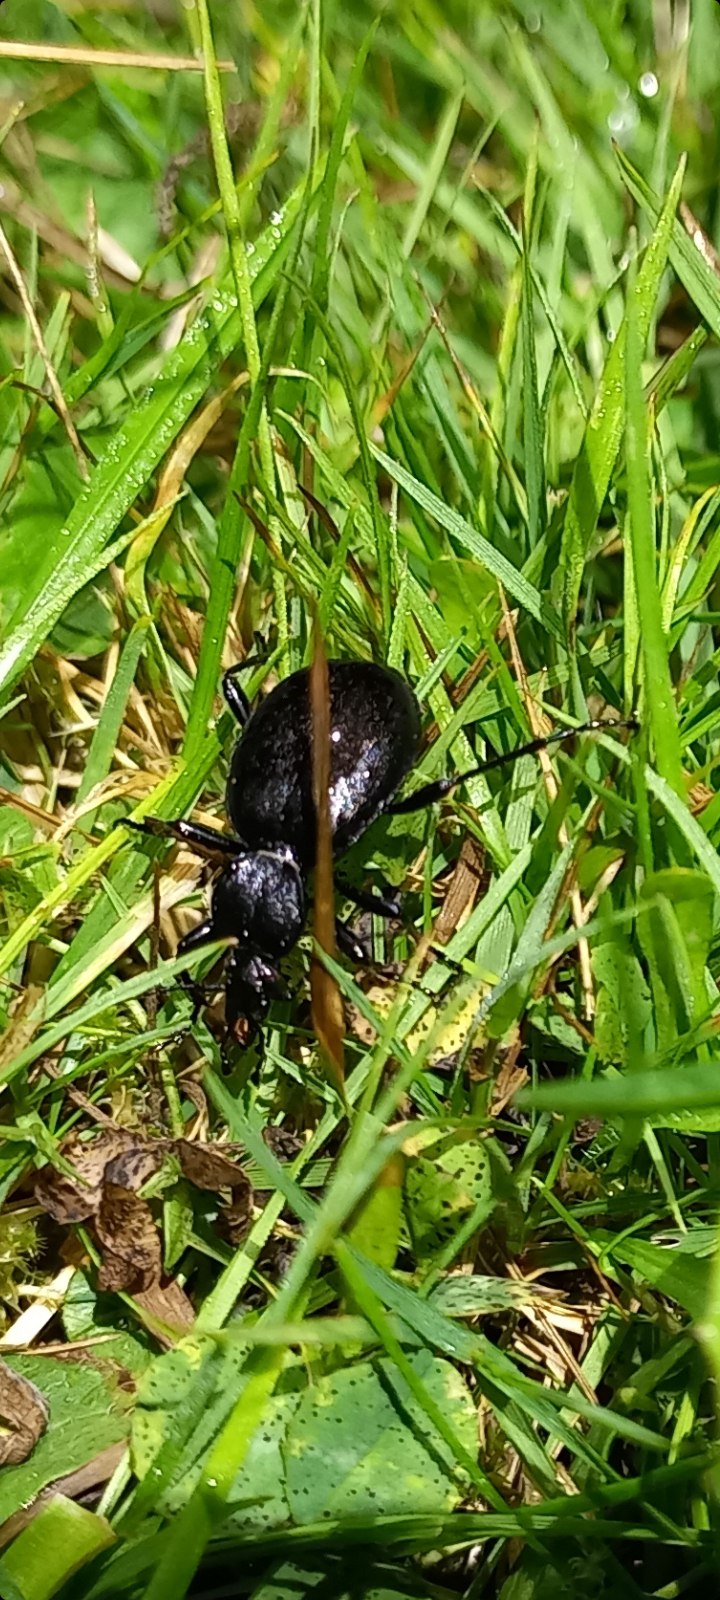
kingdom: Animalia
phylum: Arthropoda
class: Insecta
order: Coleoptera
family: Carabidae
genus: Cychrus
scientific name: Cychrus caraboides
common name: Sneglerøver
